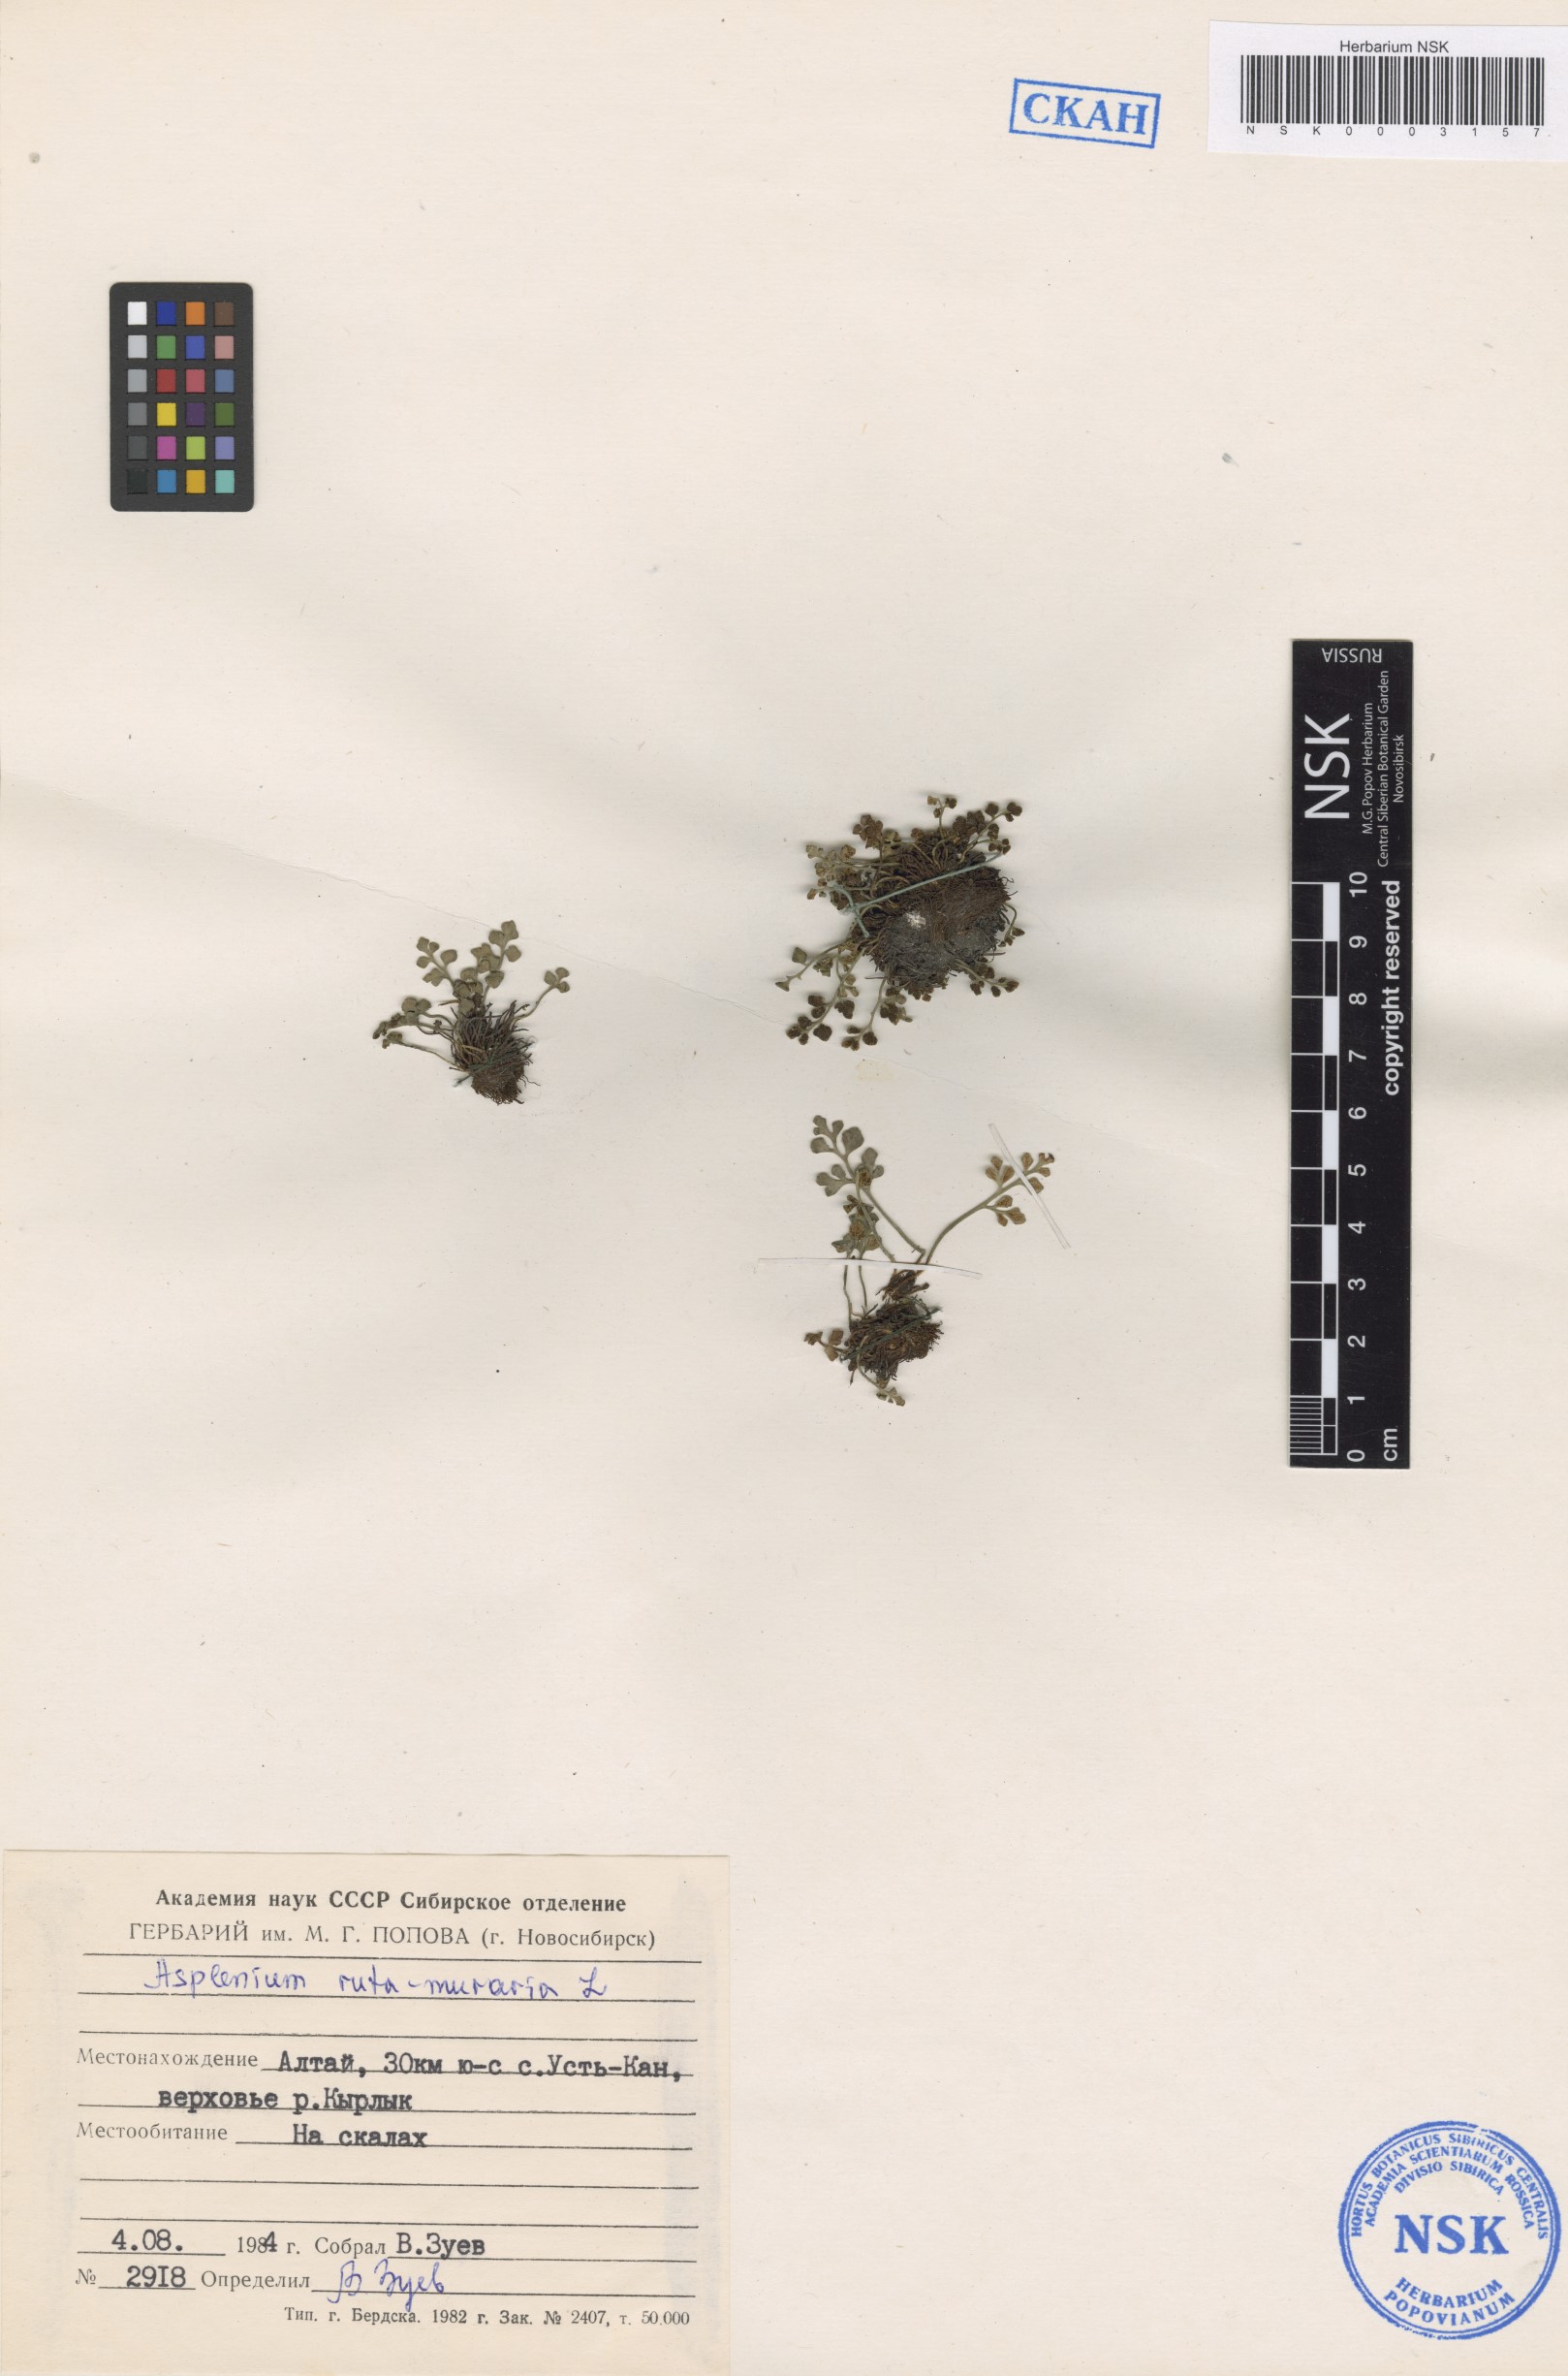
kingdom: Plantae
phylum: Tracheophyta
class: Polypodiopsida
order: Polypodiales
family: Aspleniaceae
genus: Asplenium
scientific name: Asplenium ruta-muraria
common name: Wall-rue
